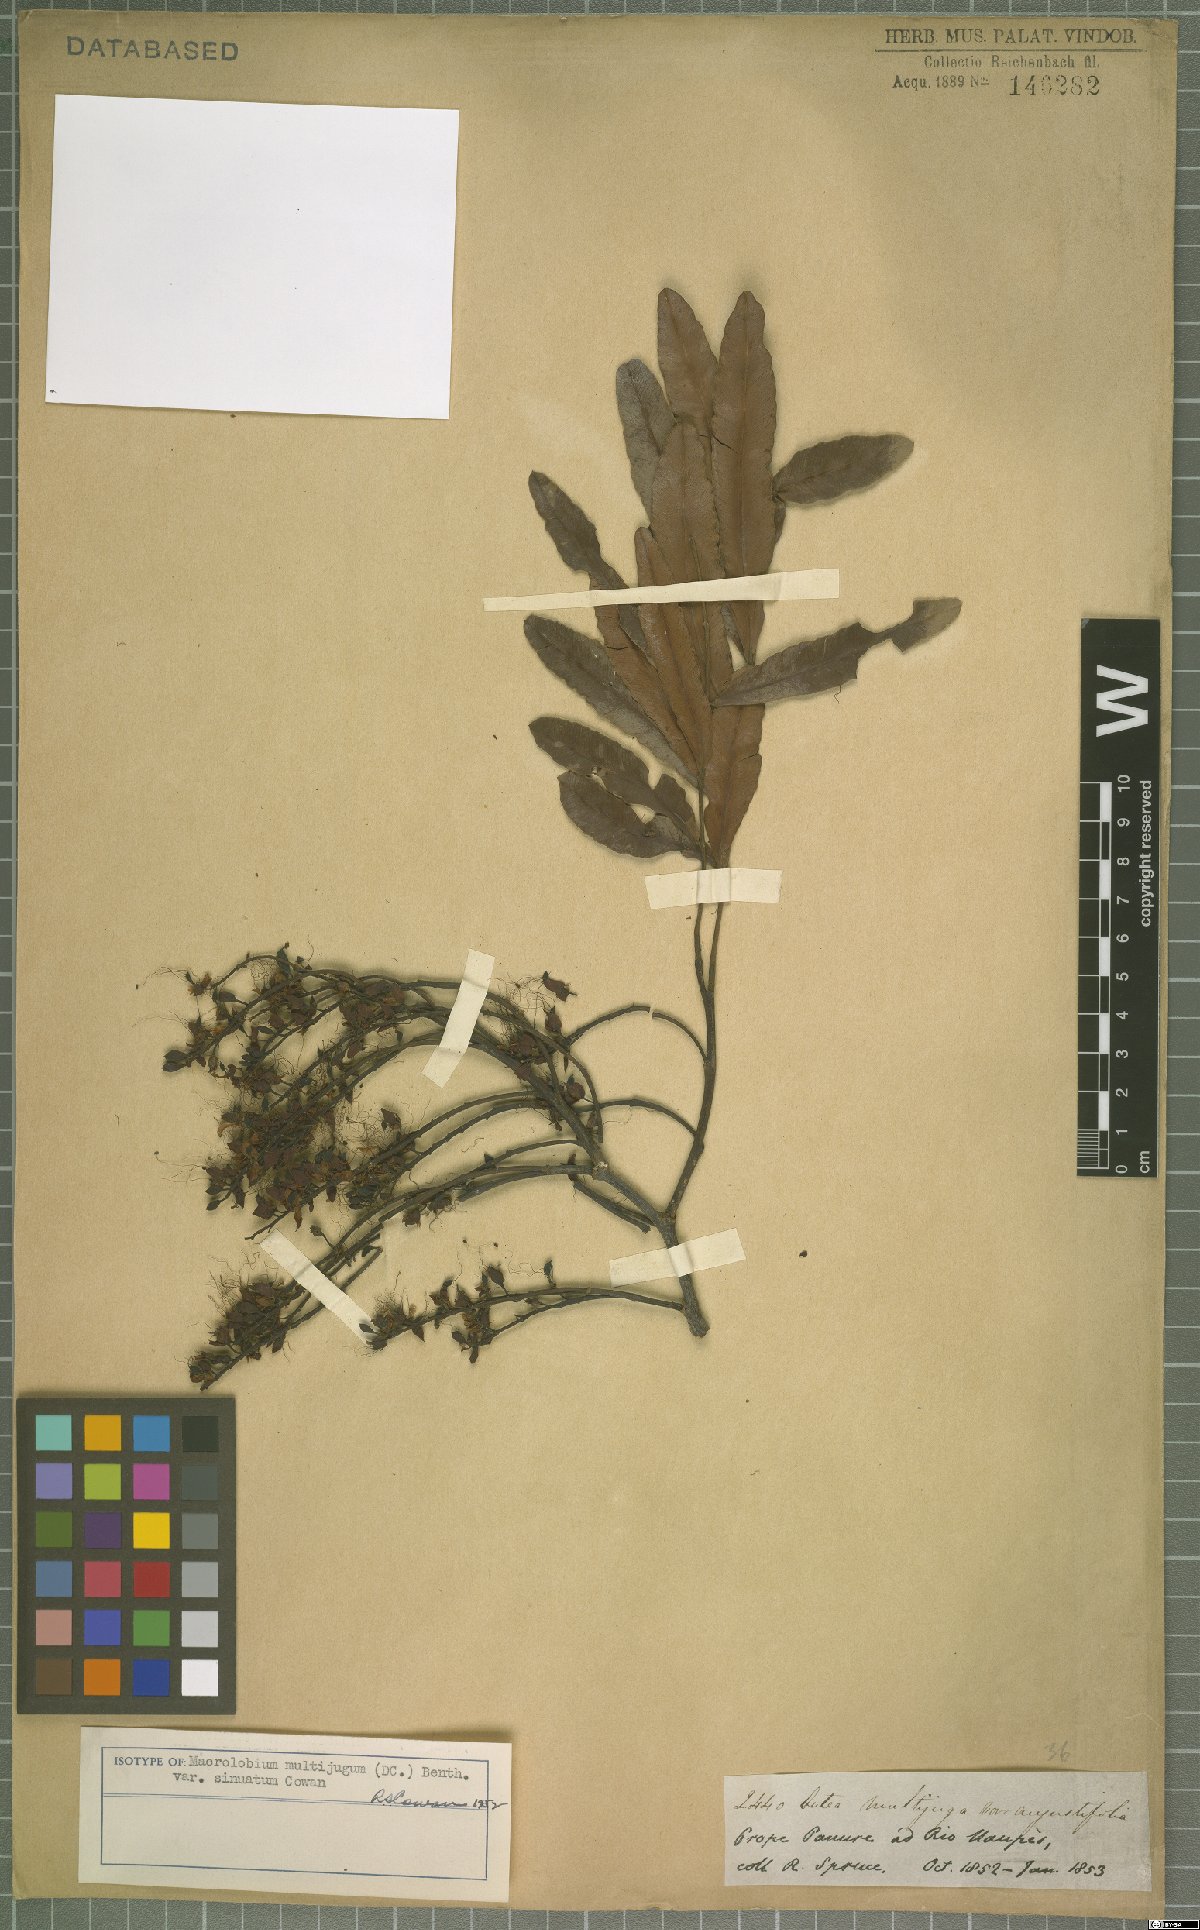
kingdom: Plantae
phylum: Tracheophyta
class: Magnoliopsida
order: Fabales
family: Fabaceae
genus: Macrolobium
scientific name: Macrolobium multijugum
